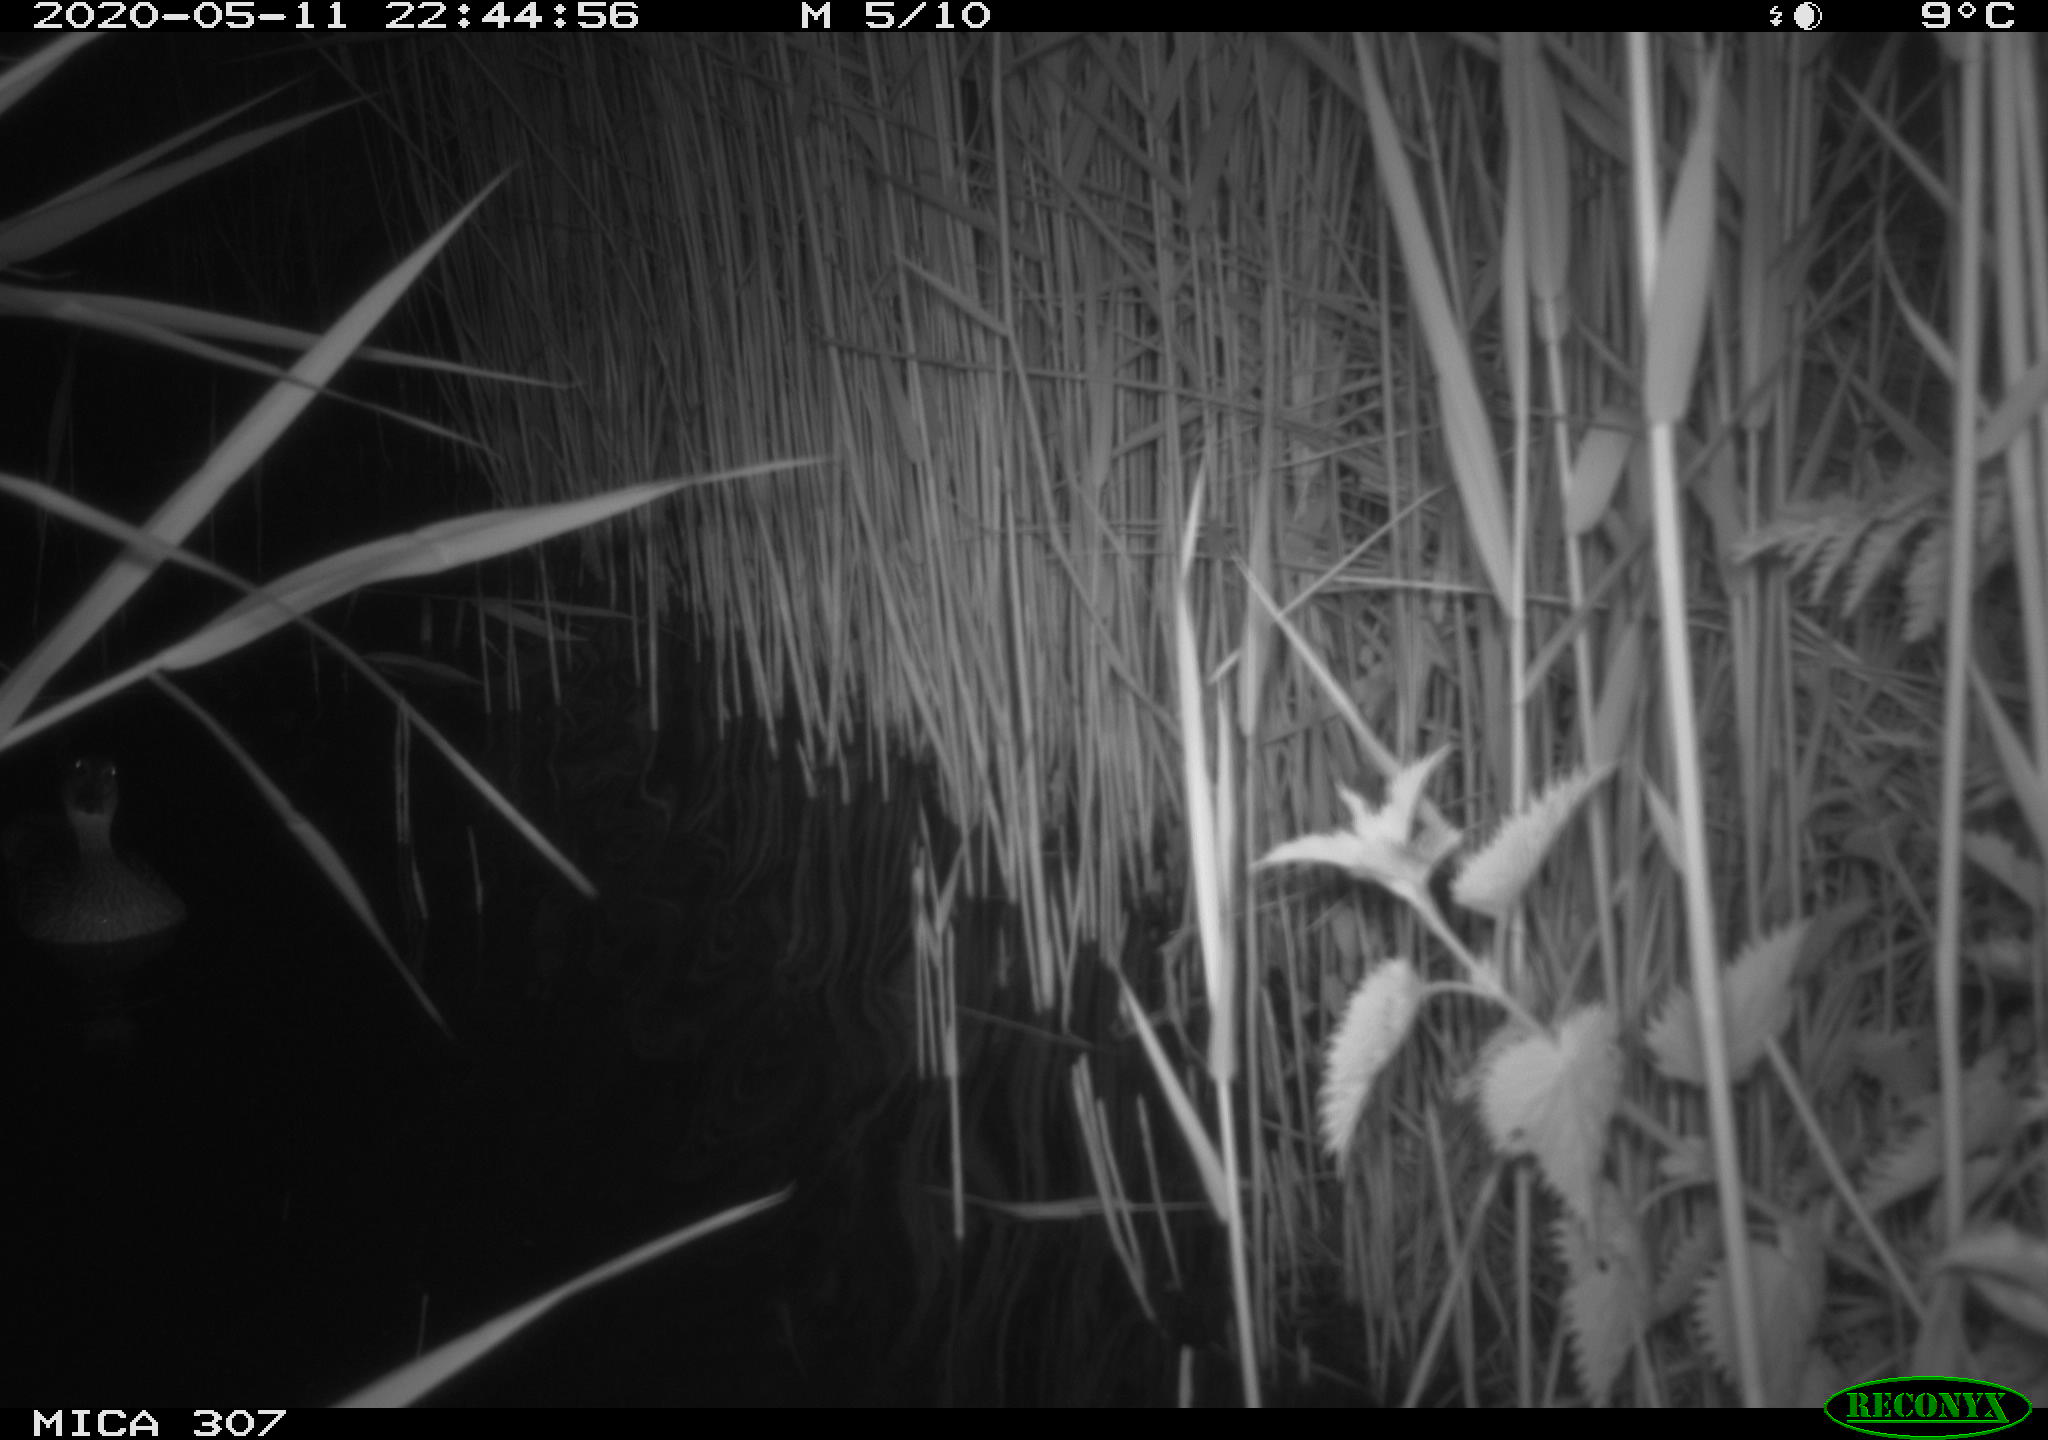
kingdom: Animalia
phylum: Chordata
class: Aves
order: Anseriformes
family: Anatidae
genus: Anas
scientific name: Anas platyrhynchos
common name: Mallard
